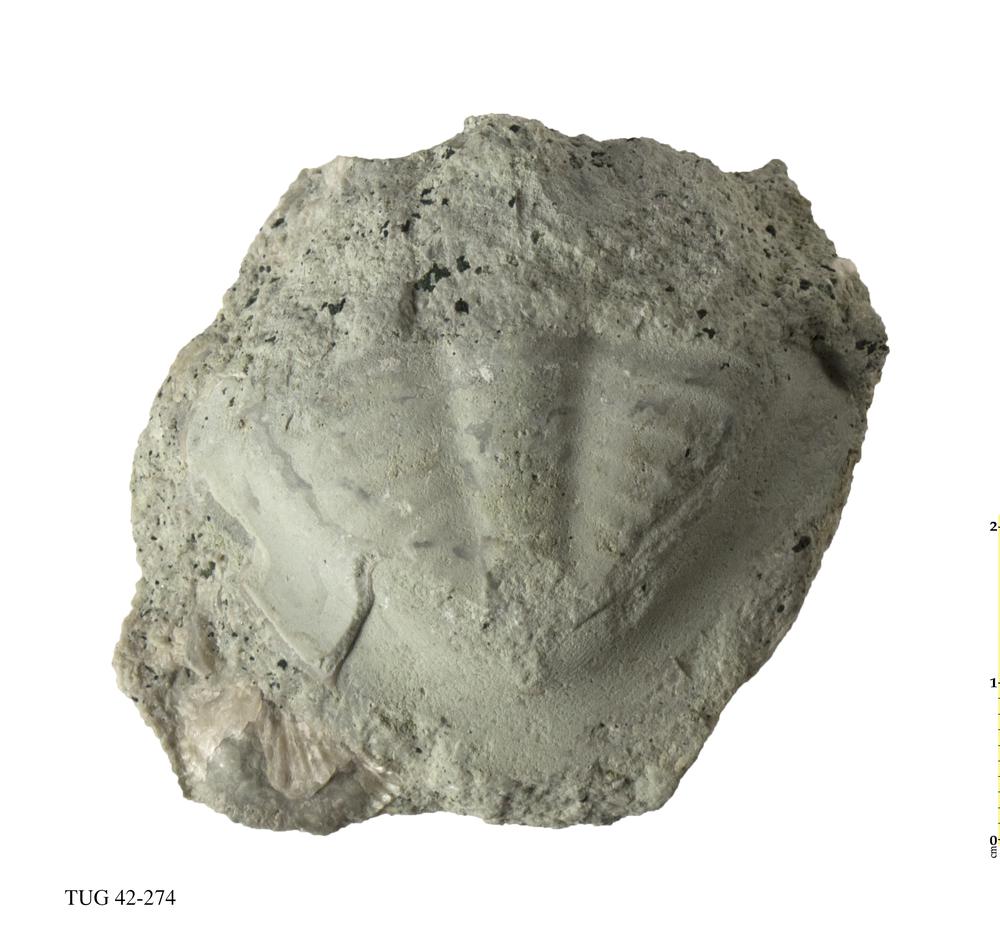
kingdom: Animalia
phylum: Arthropoda
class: Trilobita
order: Asaphida
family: Asaphidae
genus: Megistaspis
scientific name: Megistaspis planilimbata
